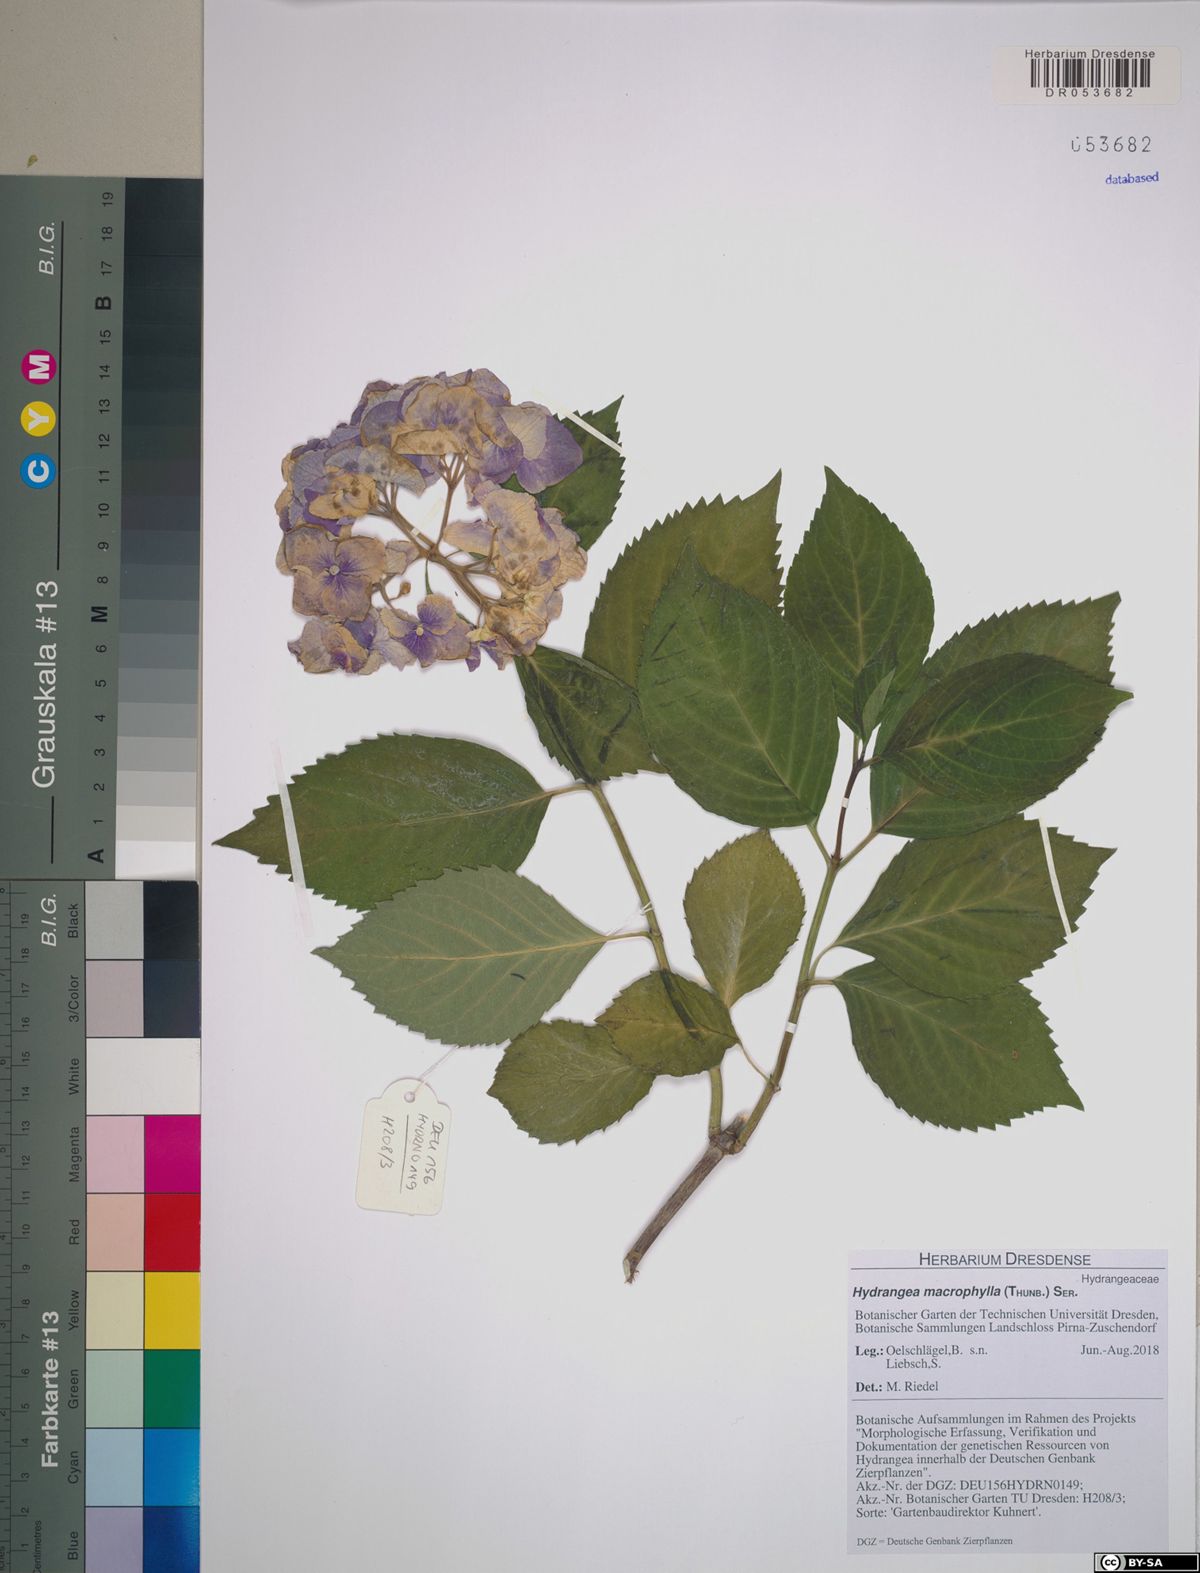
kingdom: Plantae
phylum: Tracheophyta
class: Magnoliopsida
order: Cornales
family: Hydrangeaceae
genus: Hydrangea
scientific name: Hydrangea macrophylla
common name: Hydrangea
